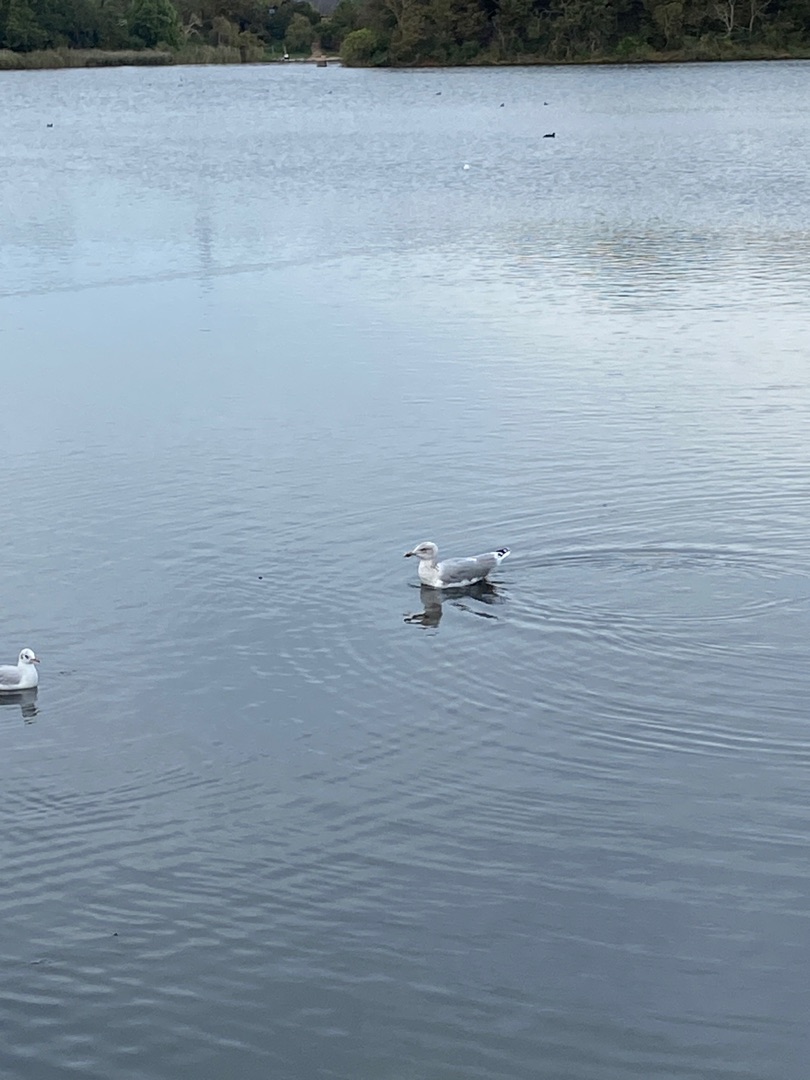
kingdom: Animalia
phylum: Chordata
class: Aves
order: Charadriiformes
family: Laridae
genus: Larus
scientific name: Larus argentatus
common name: Sølvmåge
